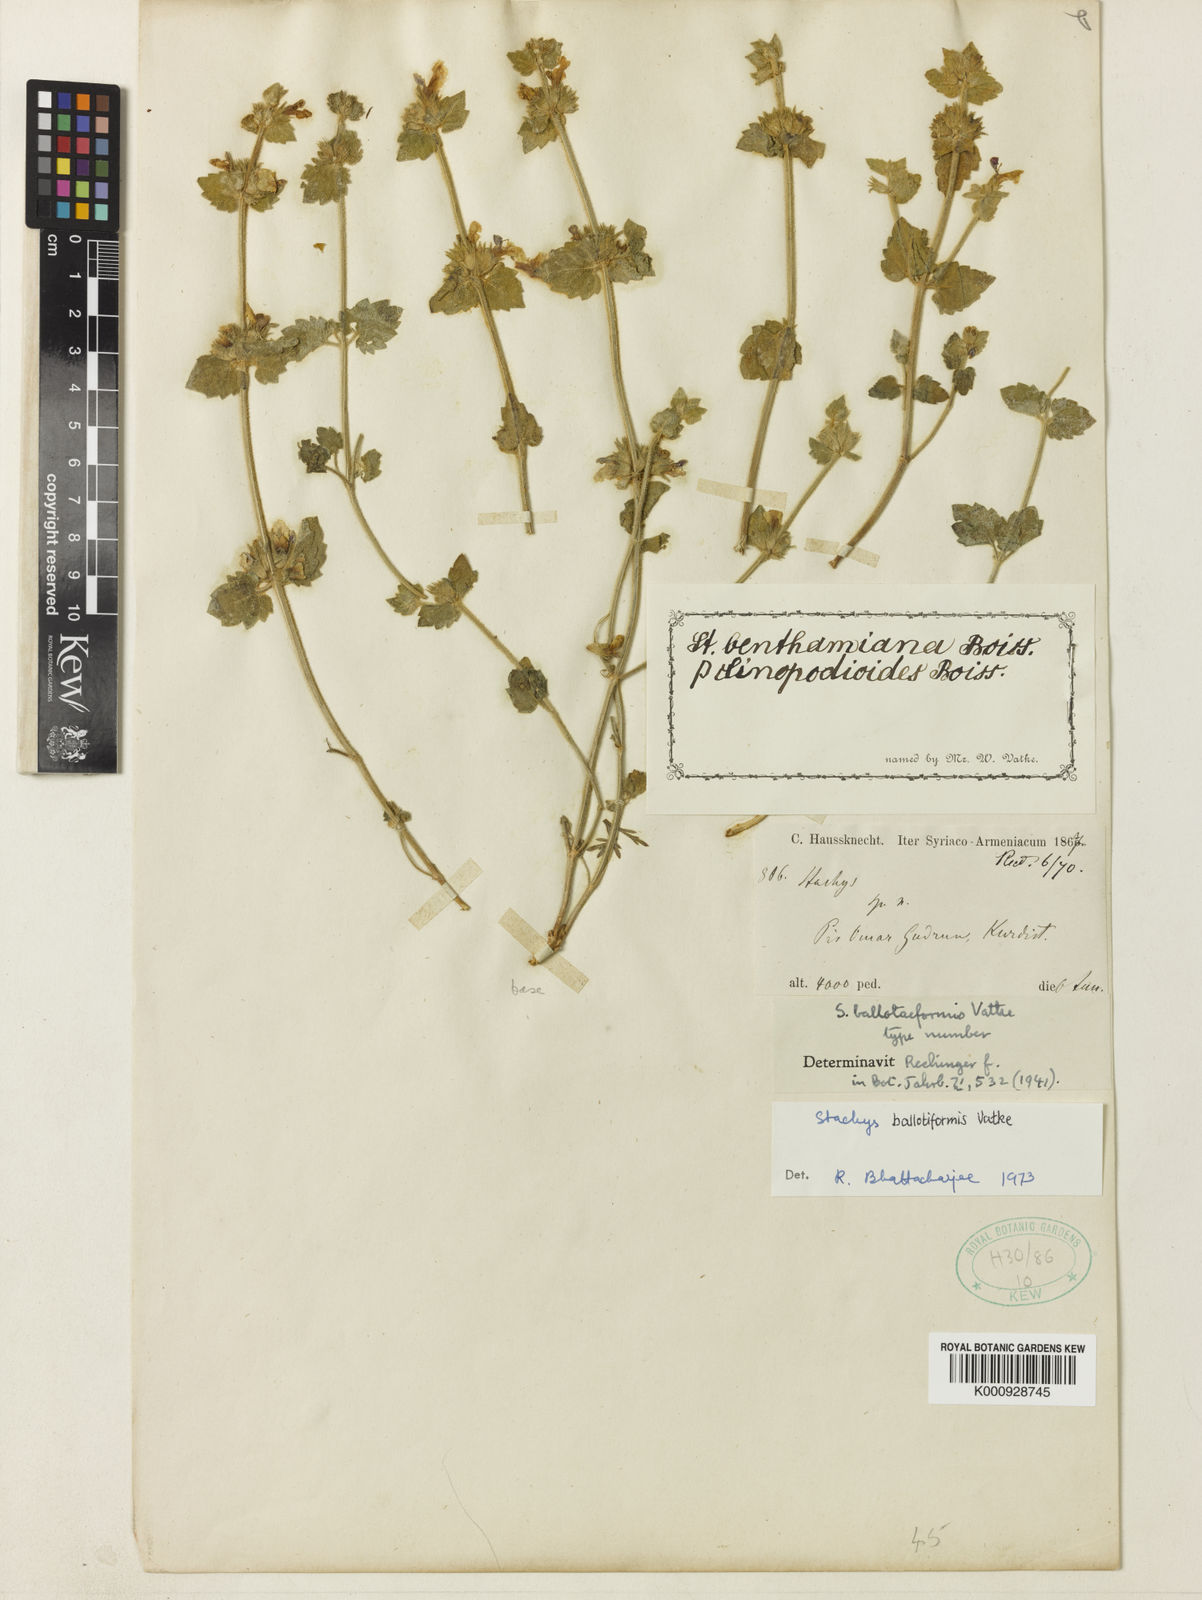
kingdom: Plantae
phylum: Tracheophyta
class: Magnoliopsida
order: Lamiales
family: Lamiaceae
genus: Stachys
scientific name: Stachys kurdica
